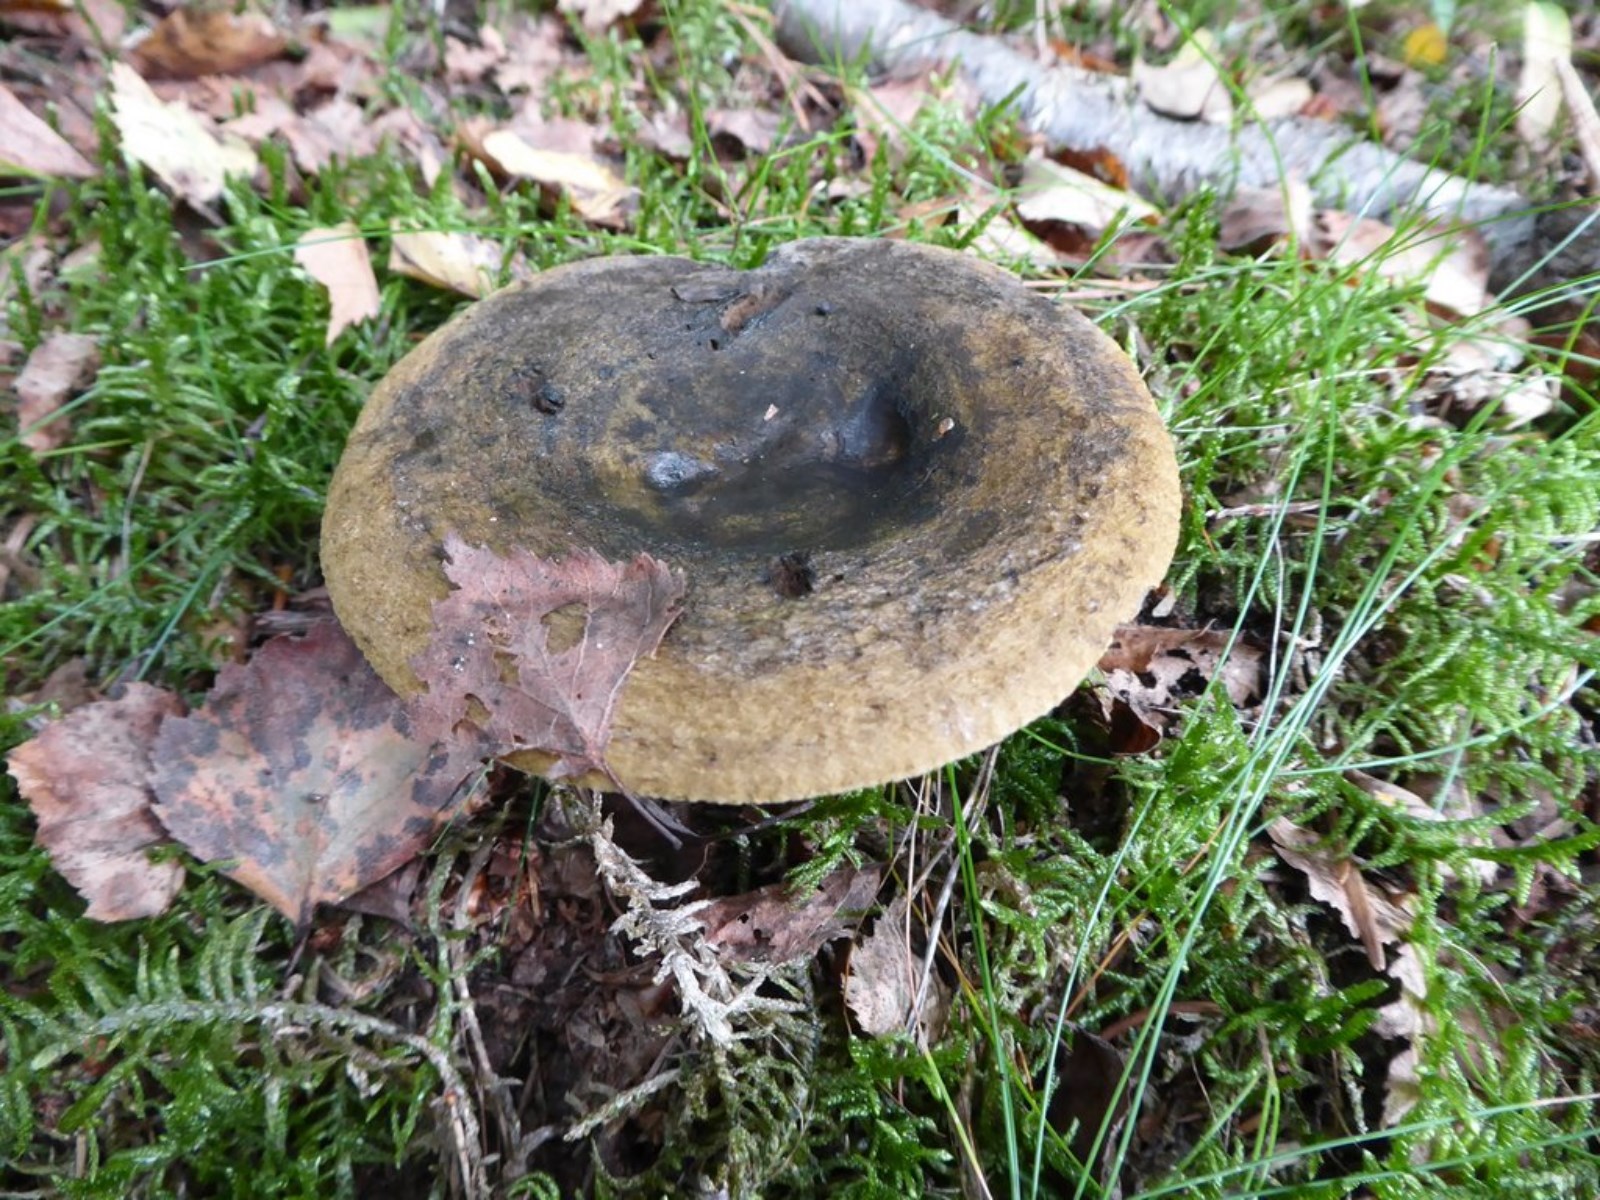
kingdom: Fungi
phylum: Basidiomycota
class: Agaricomycetes
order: Russulales
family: Russulaceae
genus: Lactarius
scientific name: Lactarius necator
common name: manddraber-mælkehat
